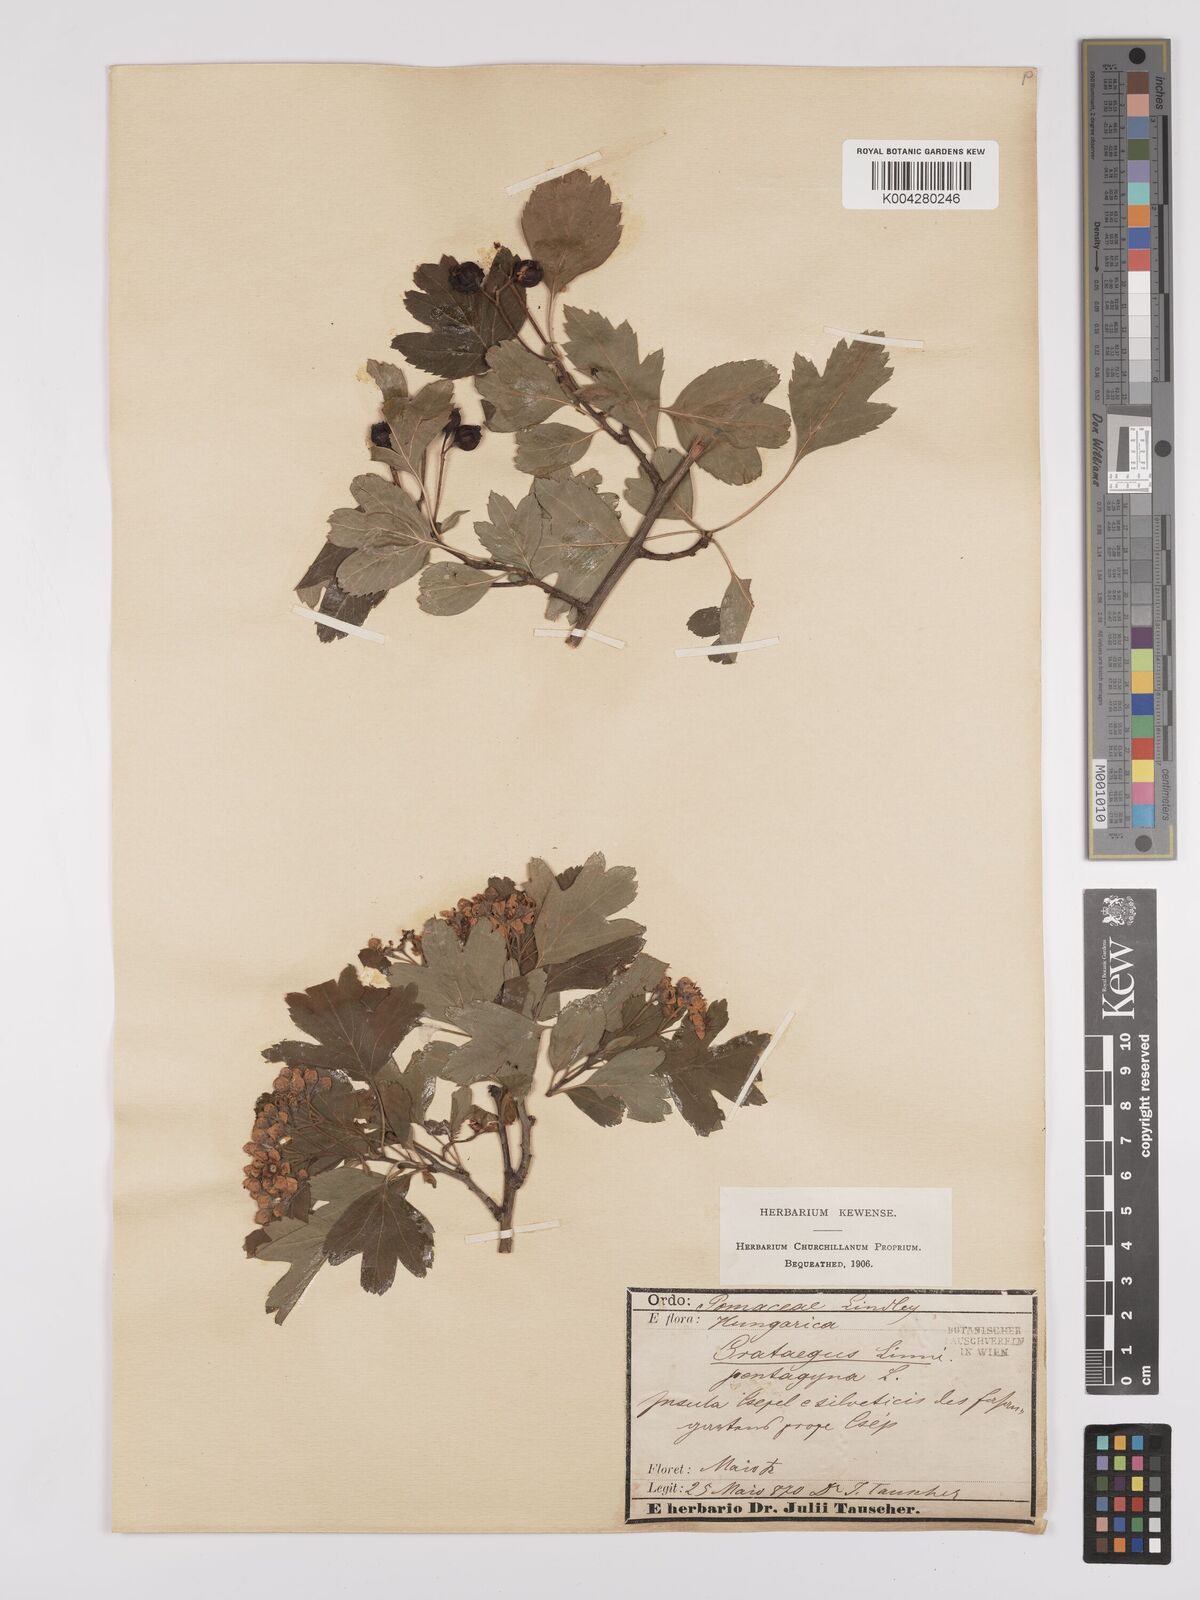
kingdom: Plantae
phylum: Tracheophyta
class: Magnoliopsida
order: Rosales
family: Rosaceae
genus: Crataegus
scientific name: Crataegus pentagyna
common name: Small-flowered black hawthorn
